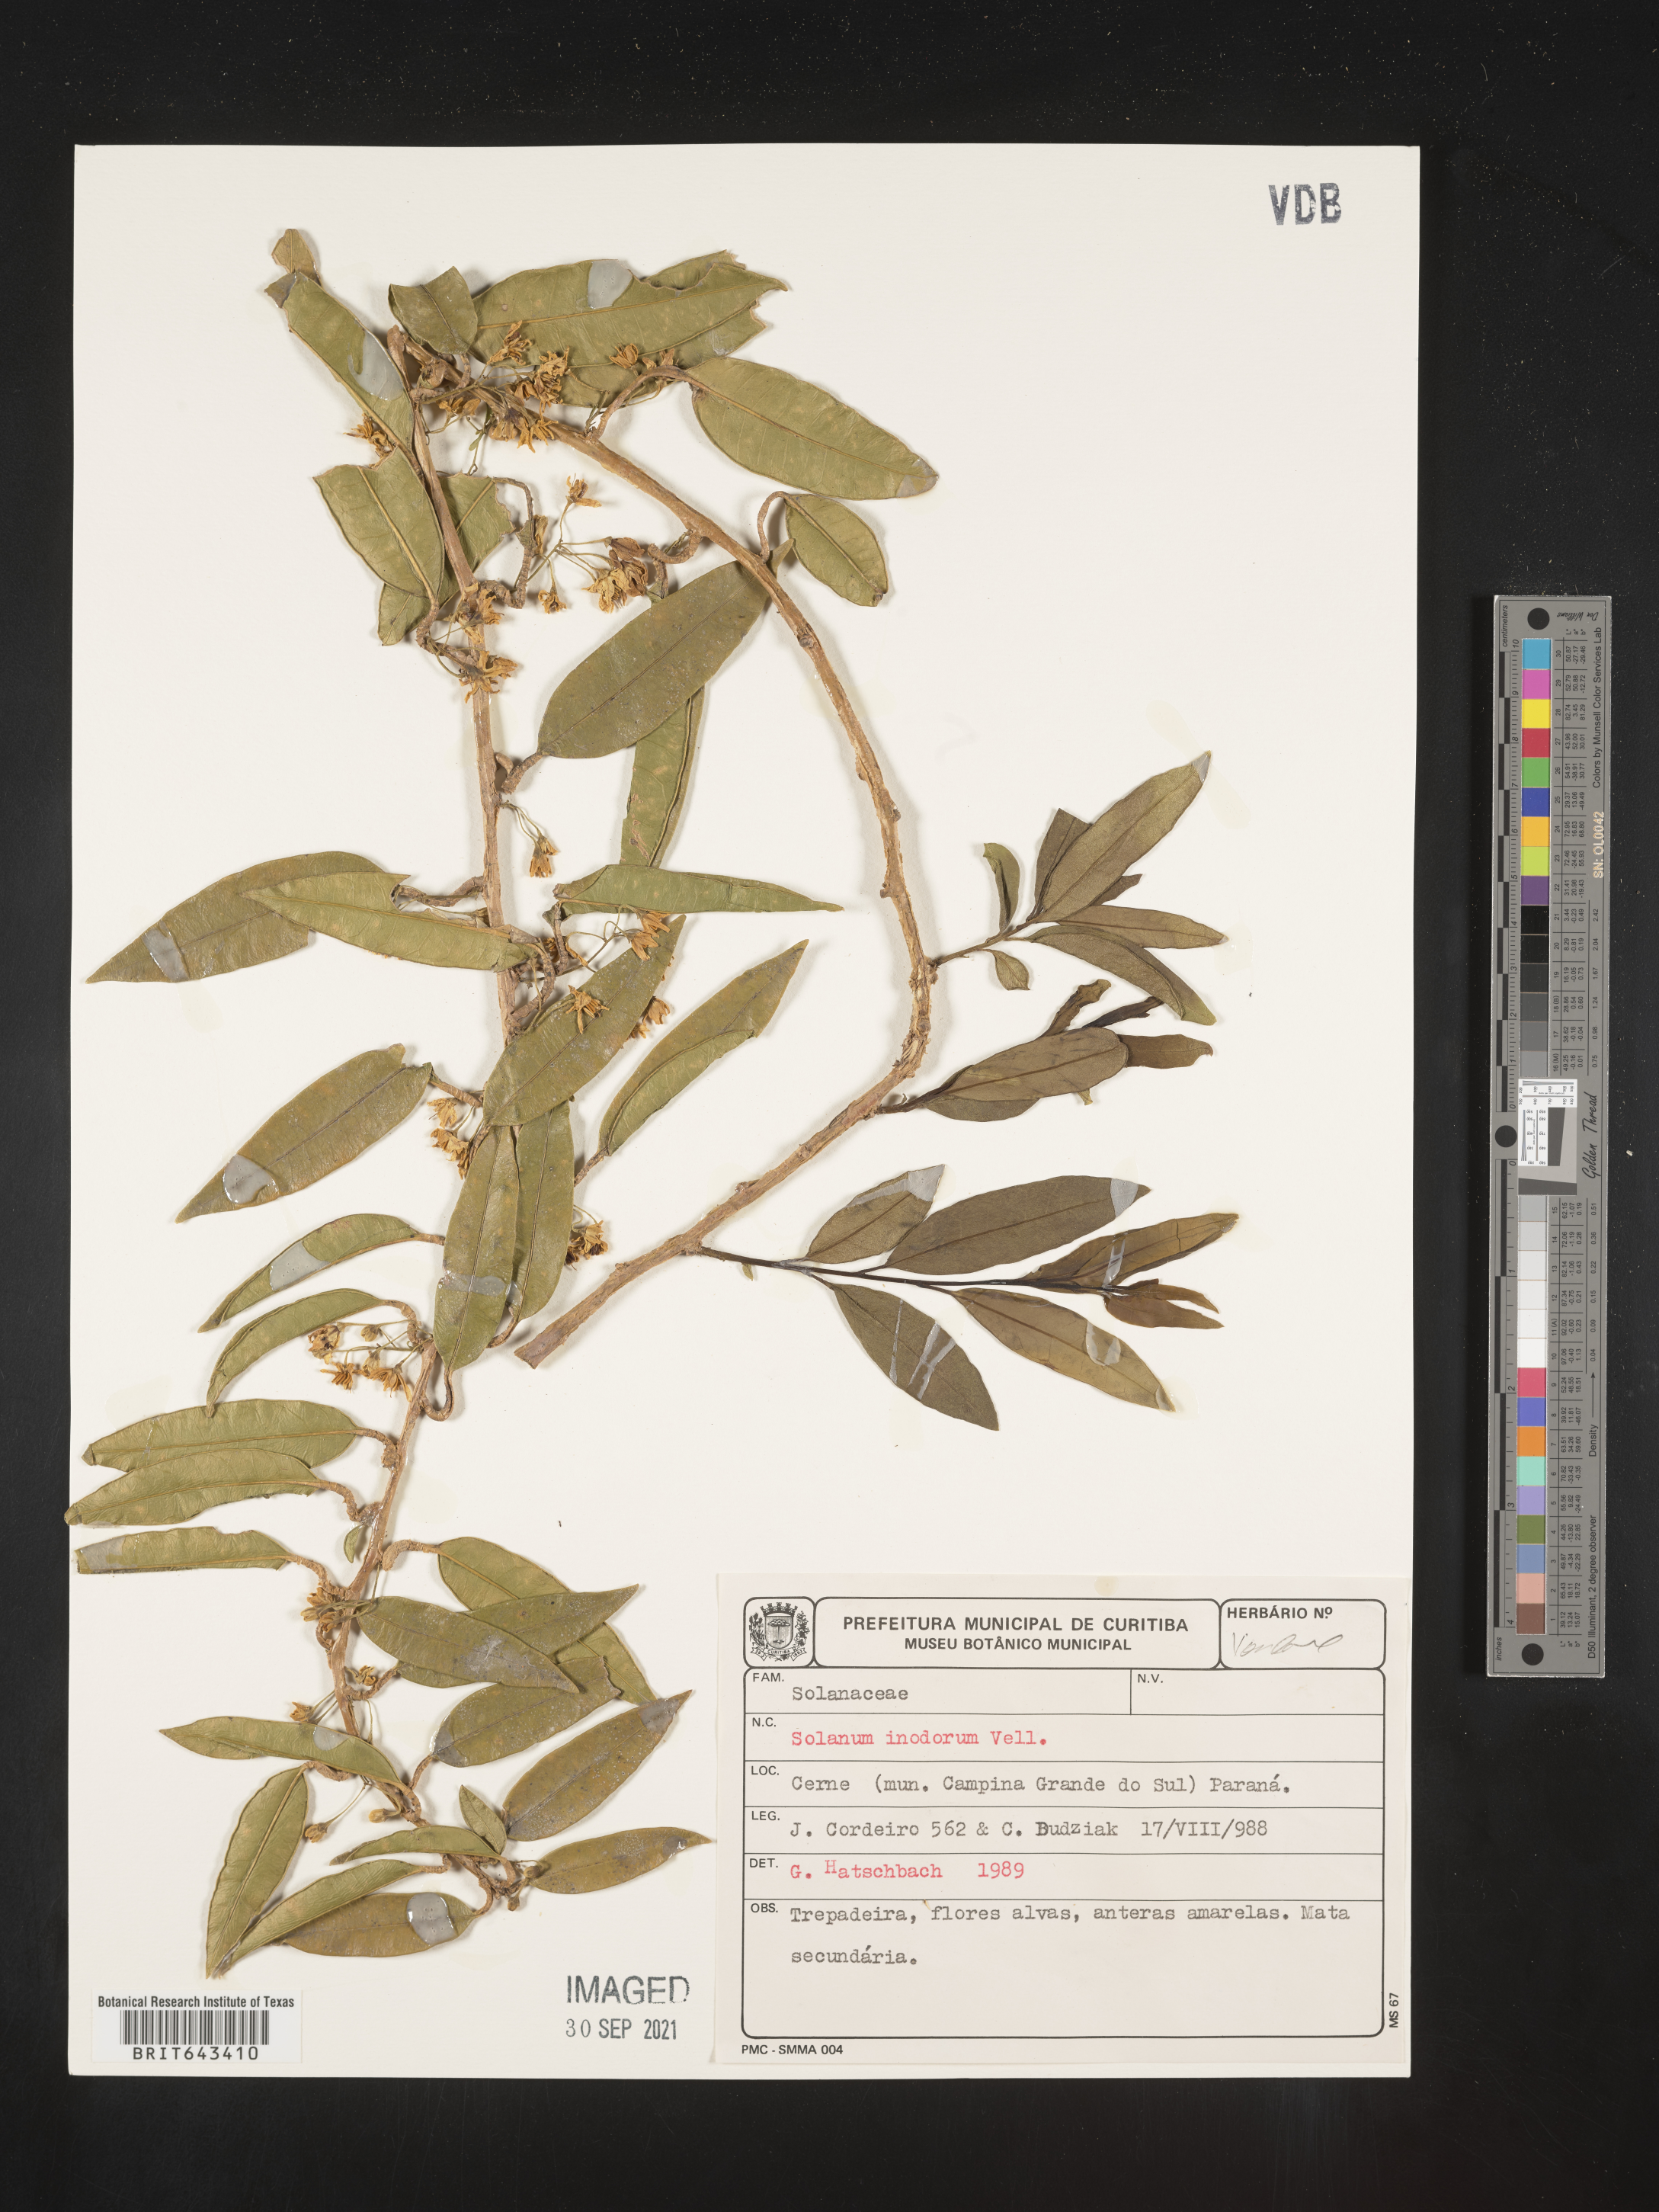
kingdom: Plantae
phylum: Tracheophyta
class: Magnoliopsida
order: Solanales
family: Solanaceae
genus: Solanum
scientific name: Solanum
